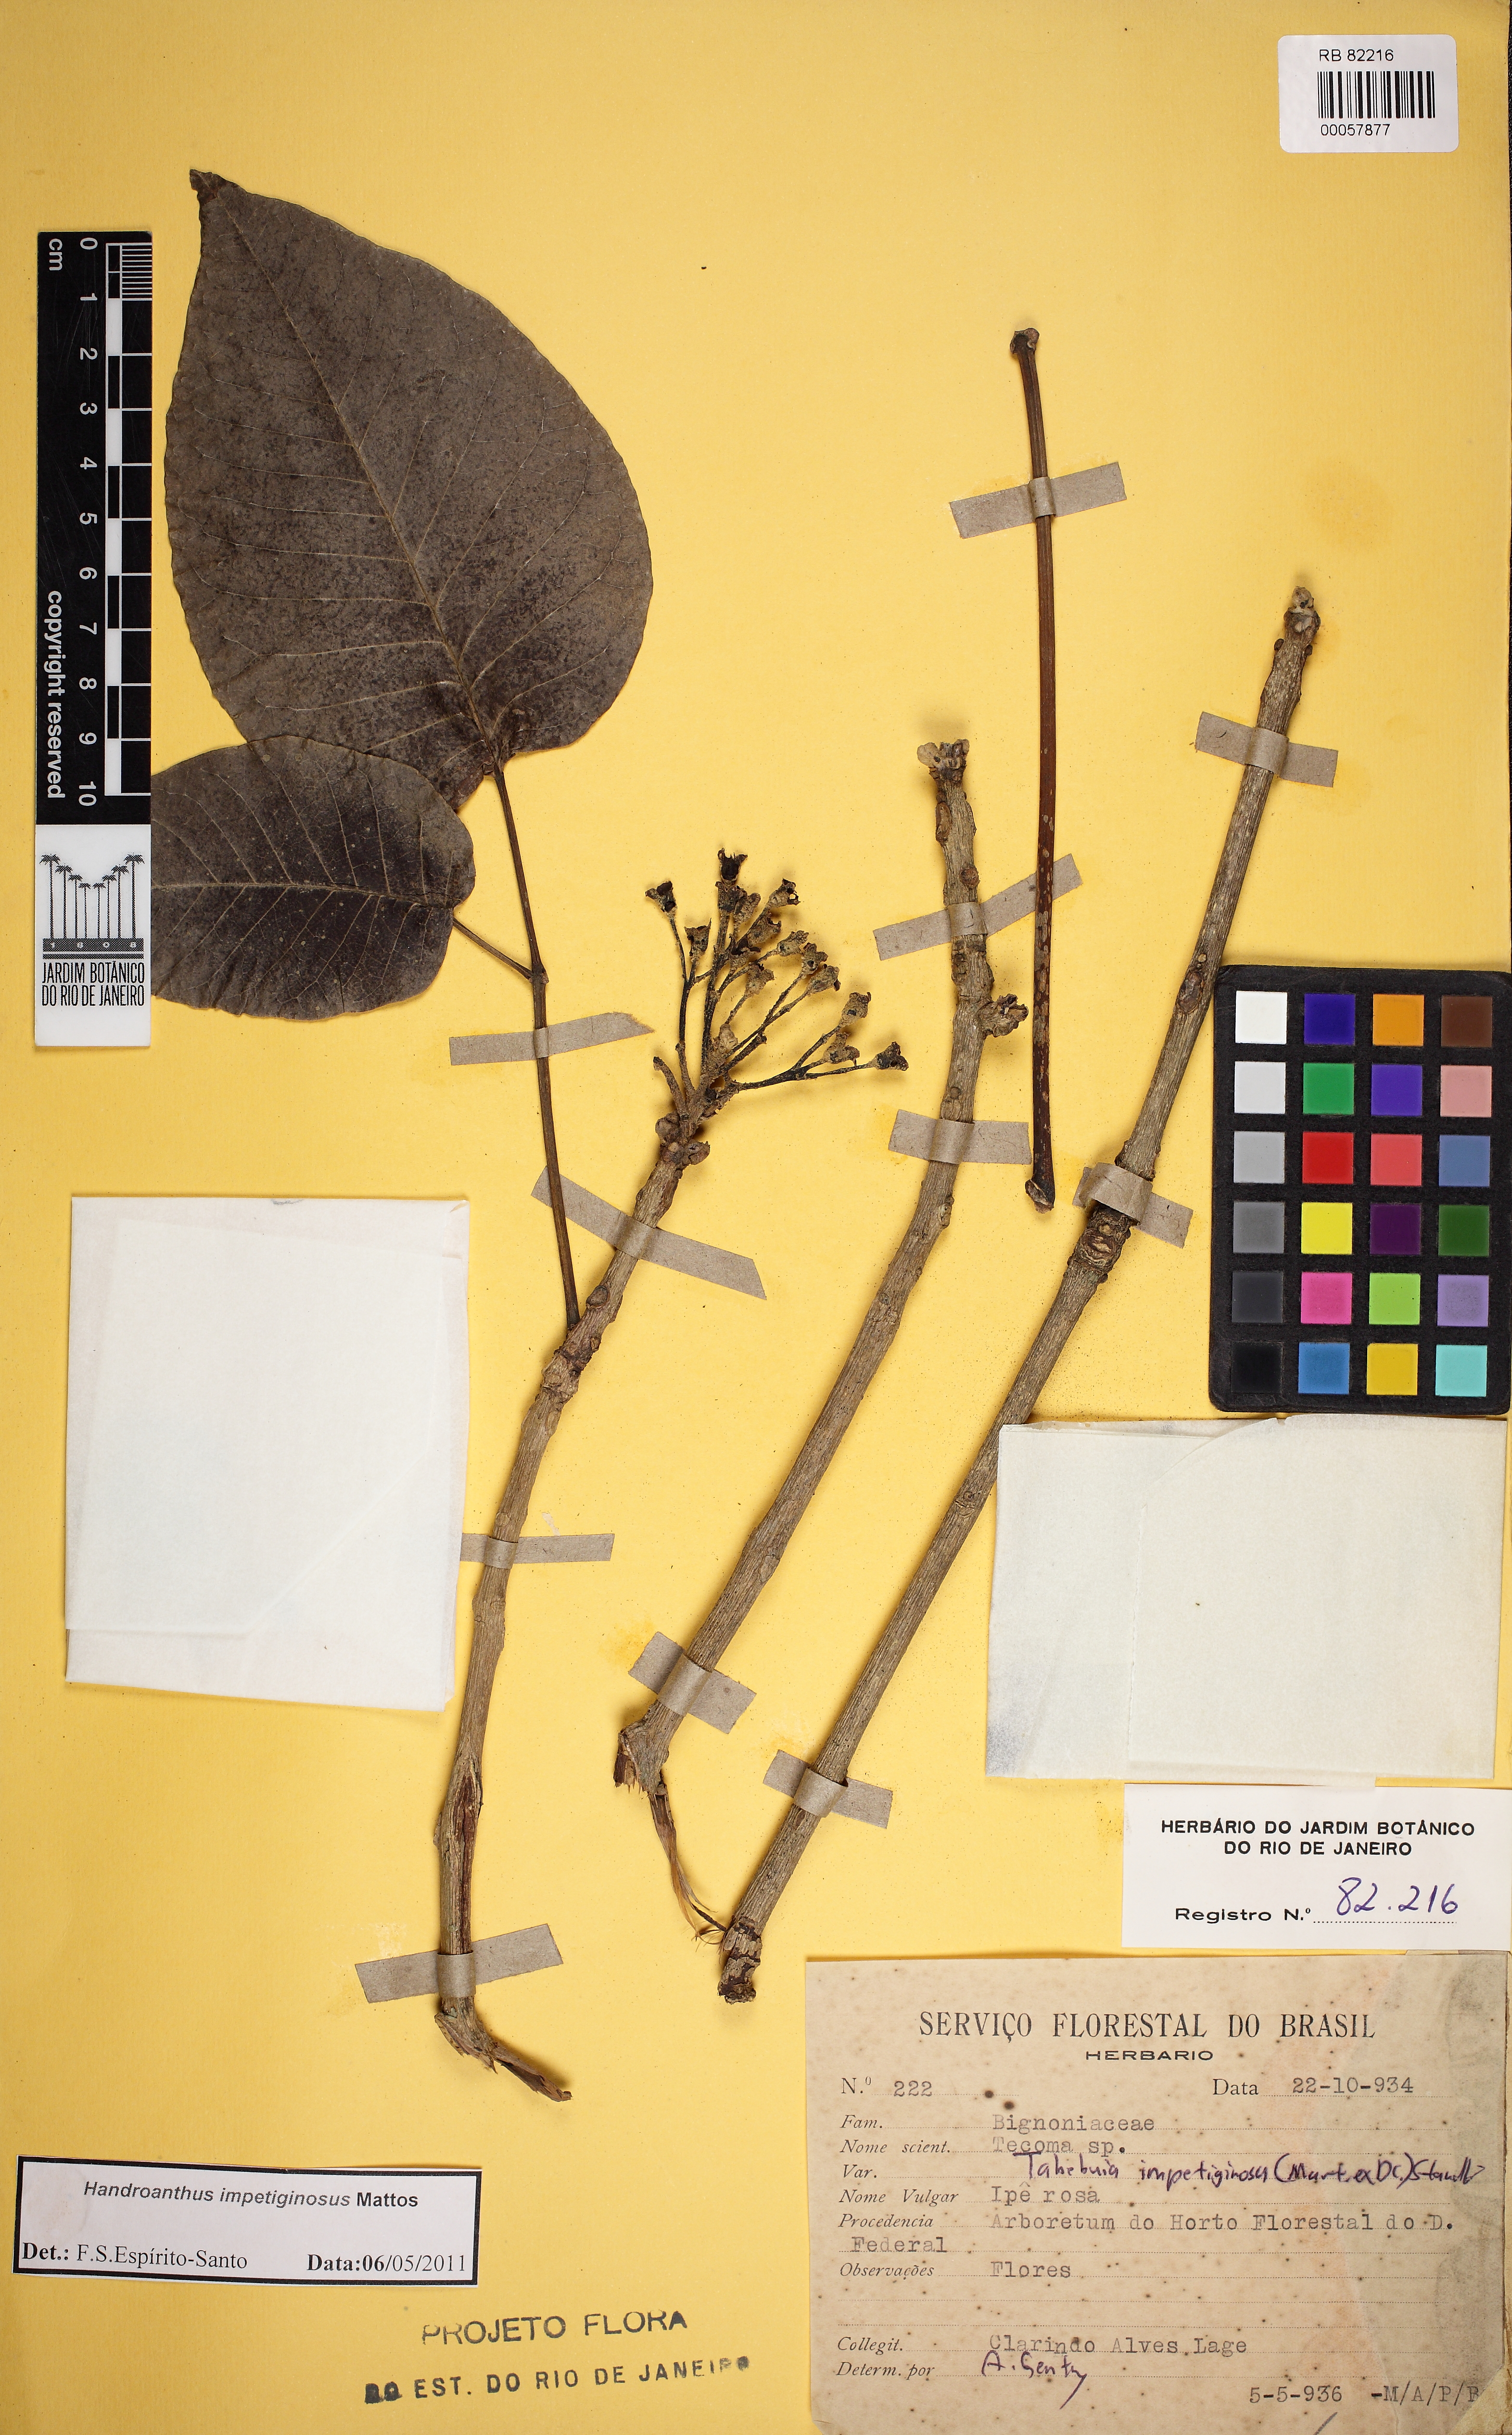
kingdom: Plantae
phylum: Tracheophyta
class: Magnoliopsida
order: Lamiales
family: Bignoniaceae
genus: Handroanthus
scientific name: Handroanthus impetiginosum
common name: Pink trumpet tree
